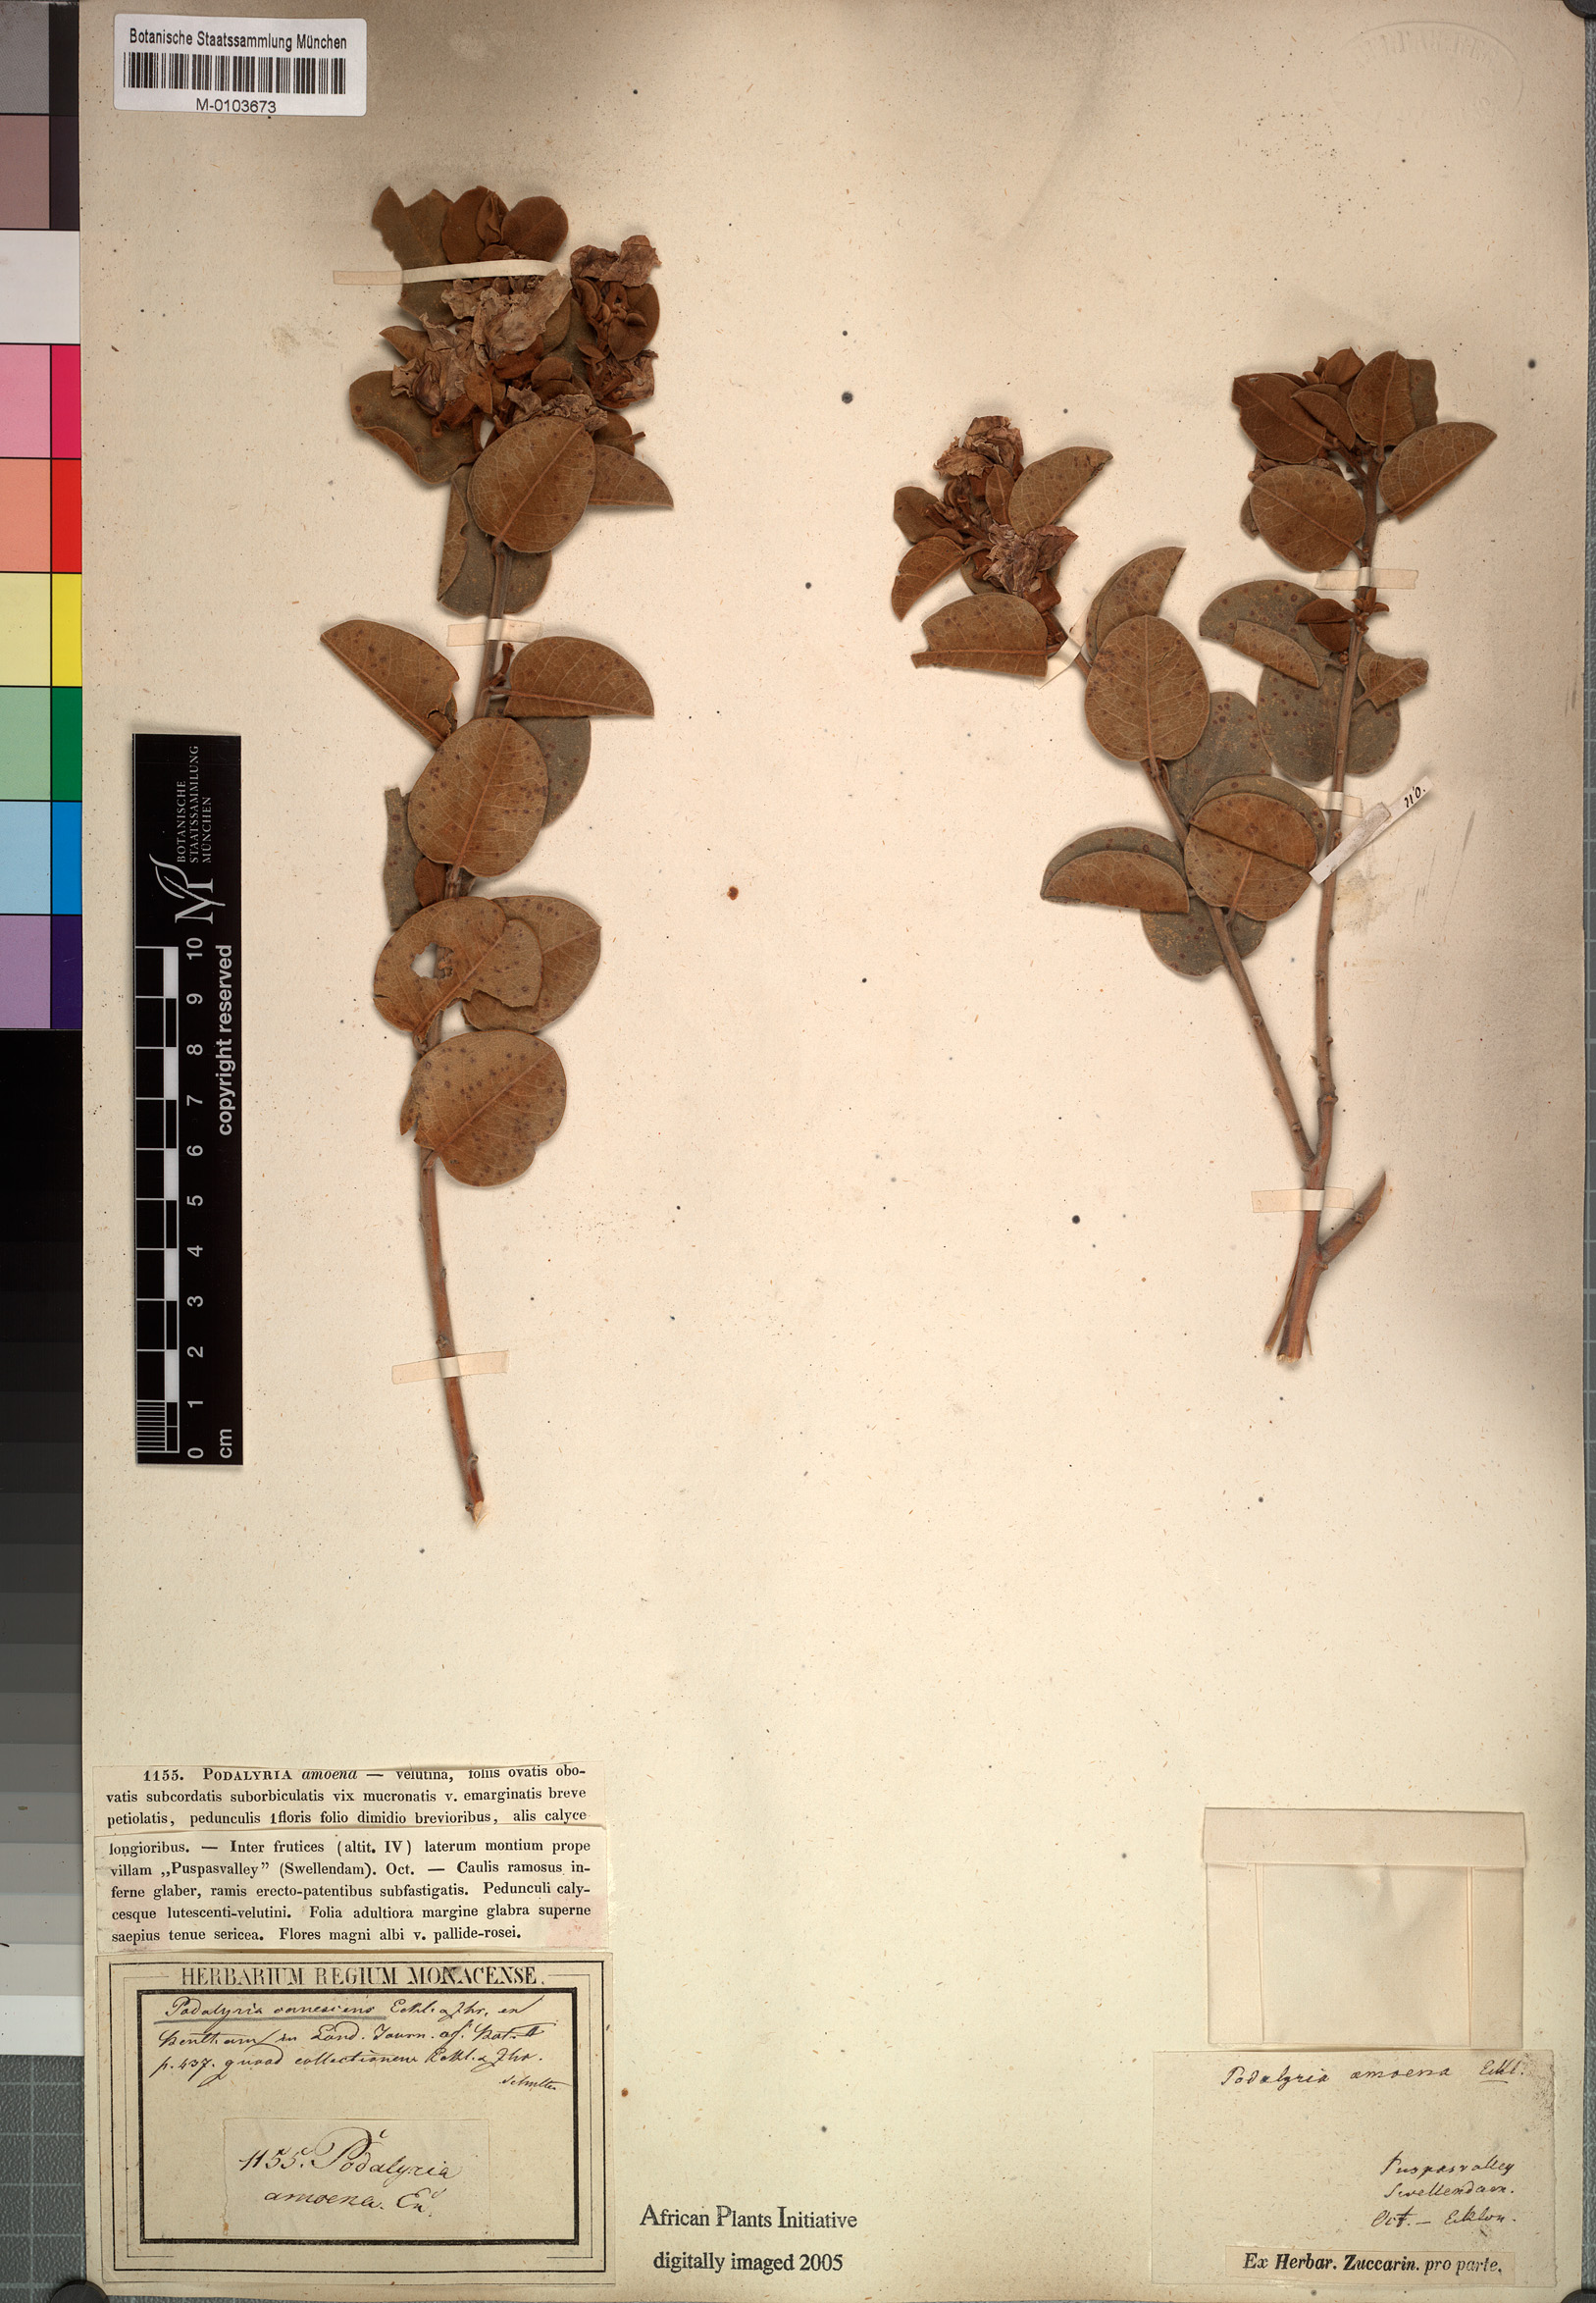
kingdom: Plantae
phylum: Tracheophyta
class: Magnoliopsida
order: Fabales
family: Fabaceae
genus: Xiphotheca
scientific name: Xiphotheca canescens
